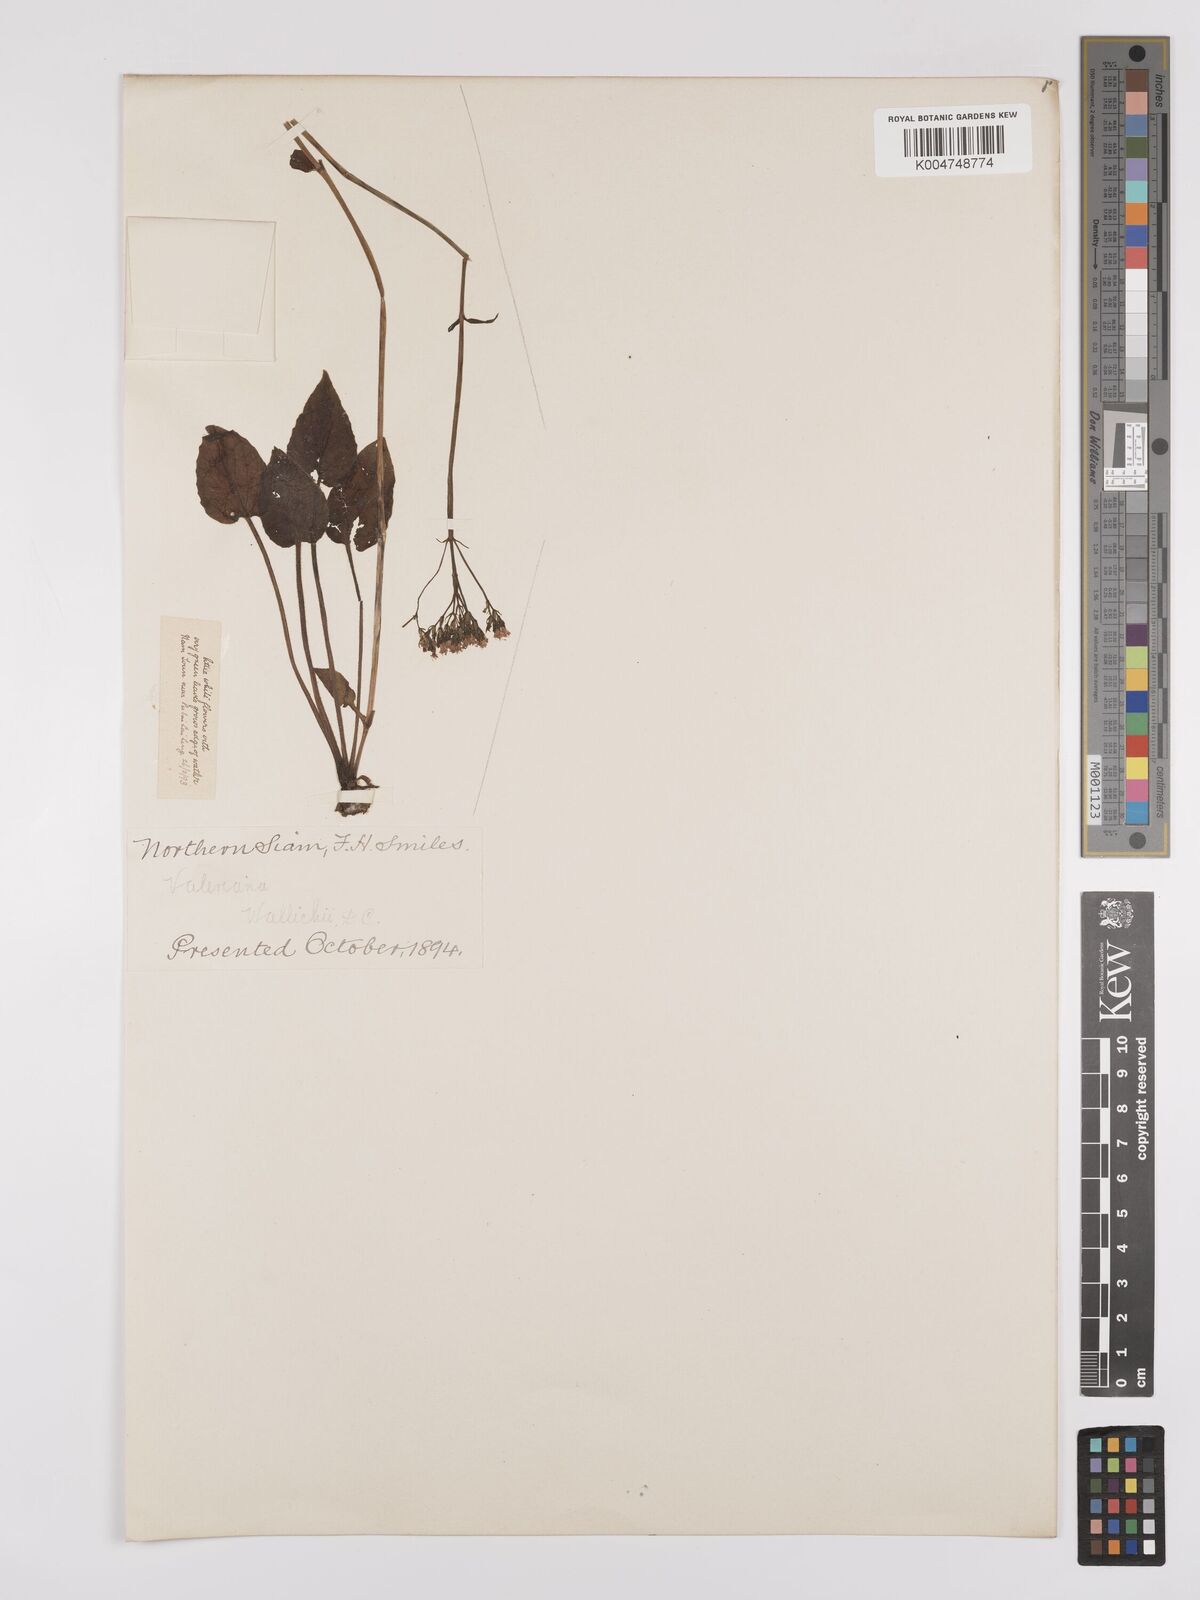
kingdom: Plantae
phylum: Tracheophyta
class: Magnoliopsida
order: Dipsacales
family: Caprifoliaceae
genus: Valeriana
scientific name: Valeriana jatamansi
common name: Indian valerian
